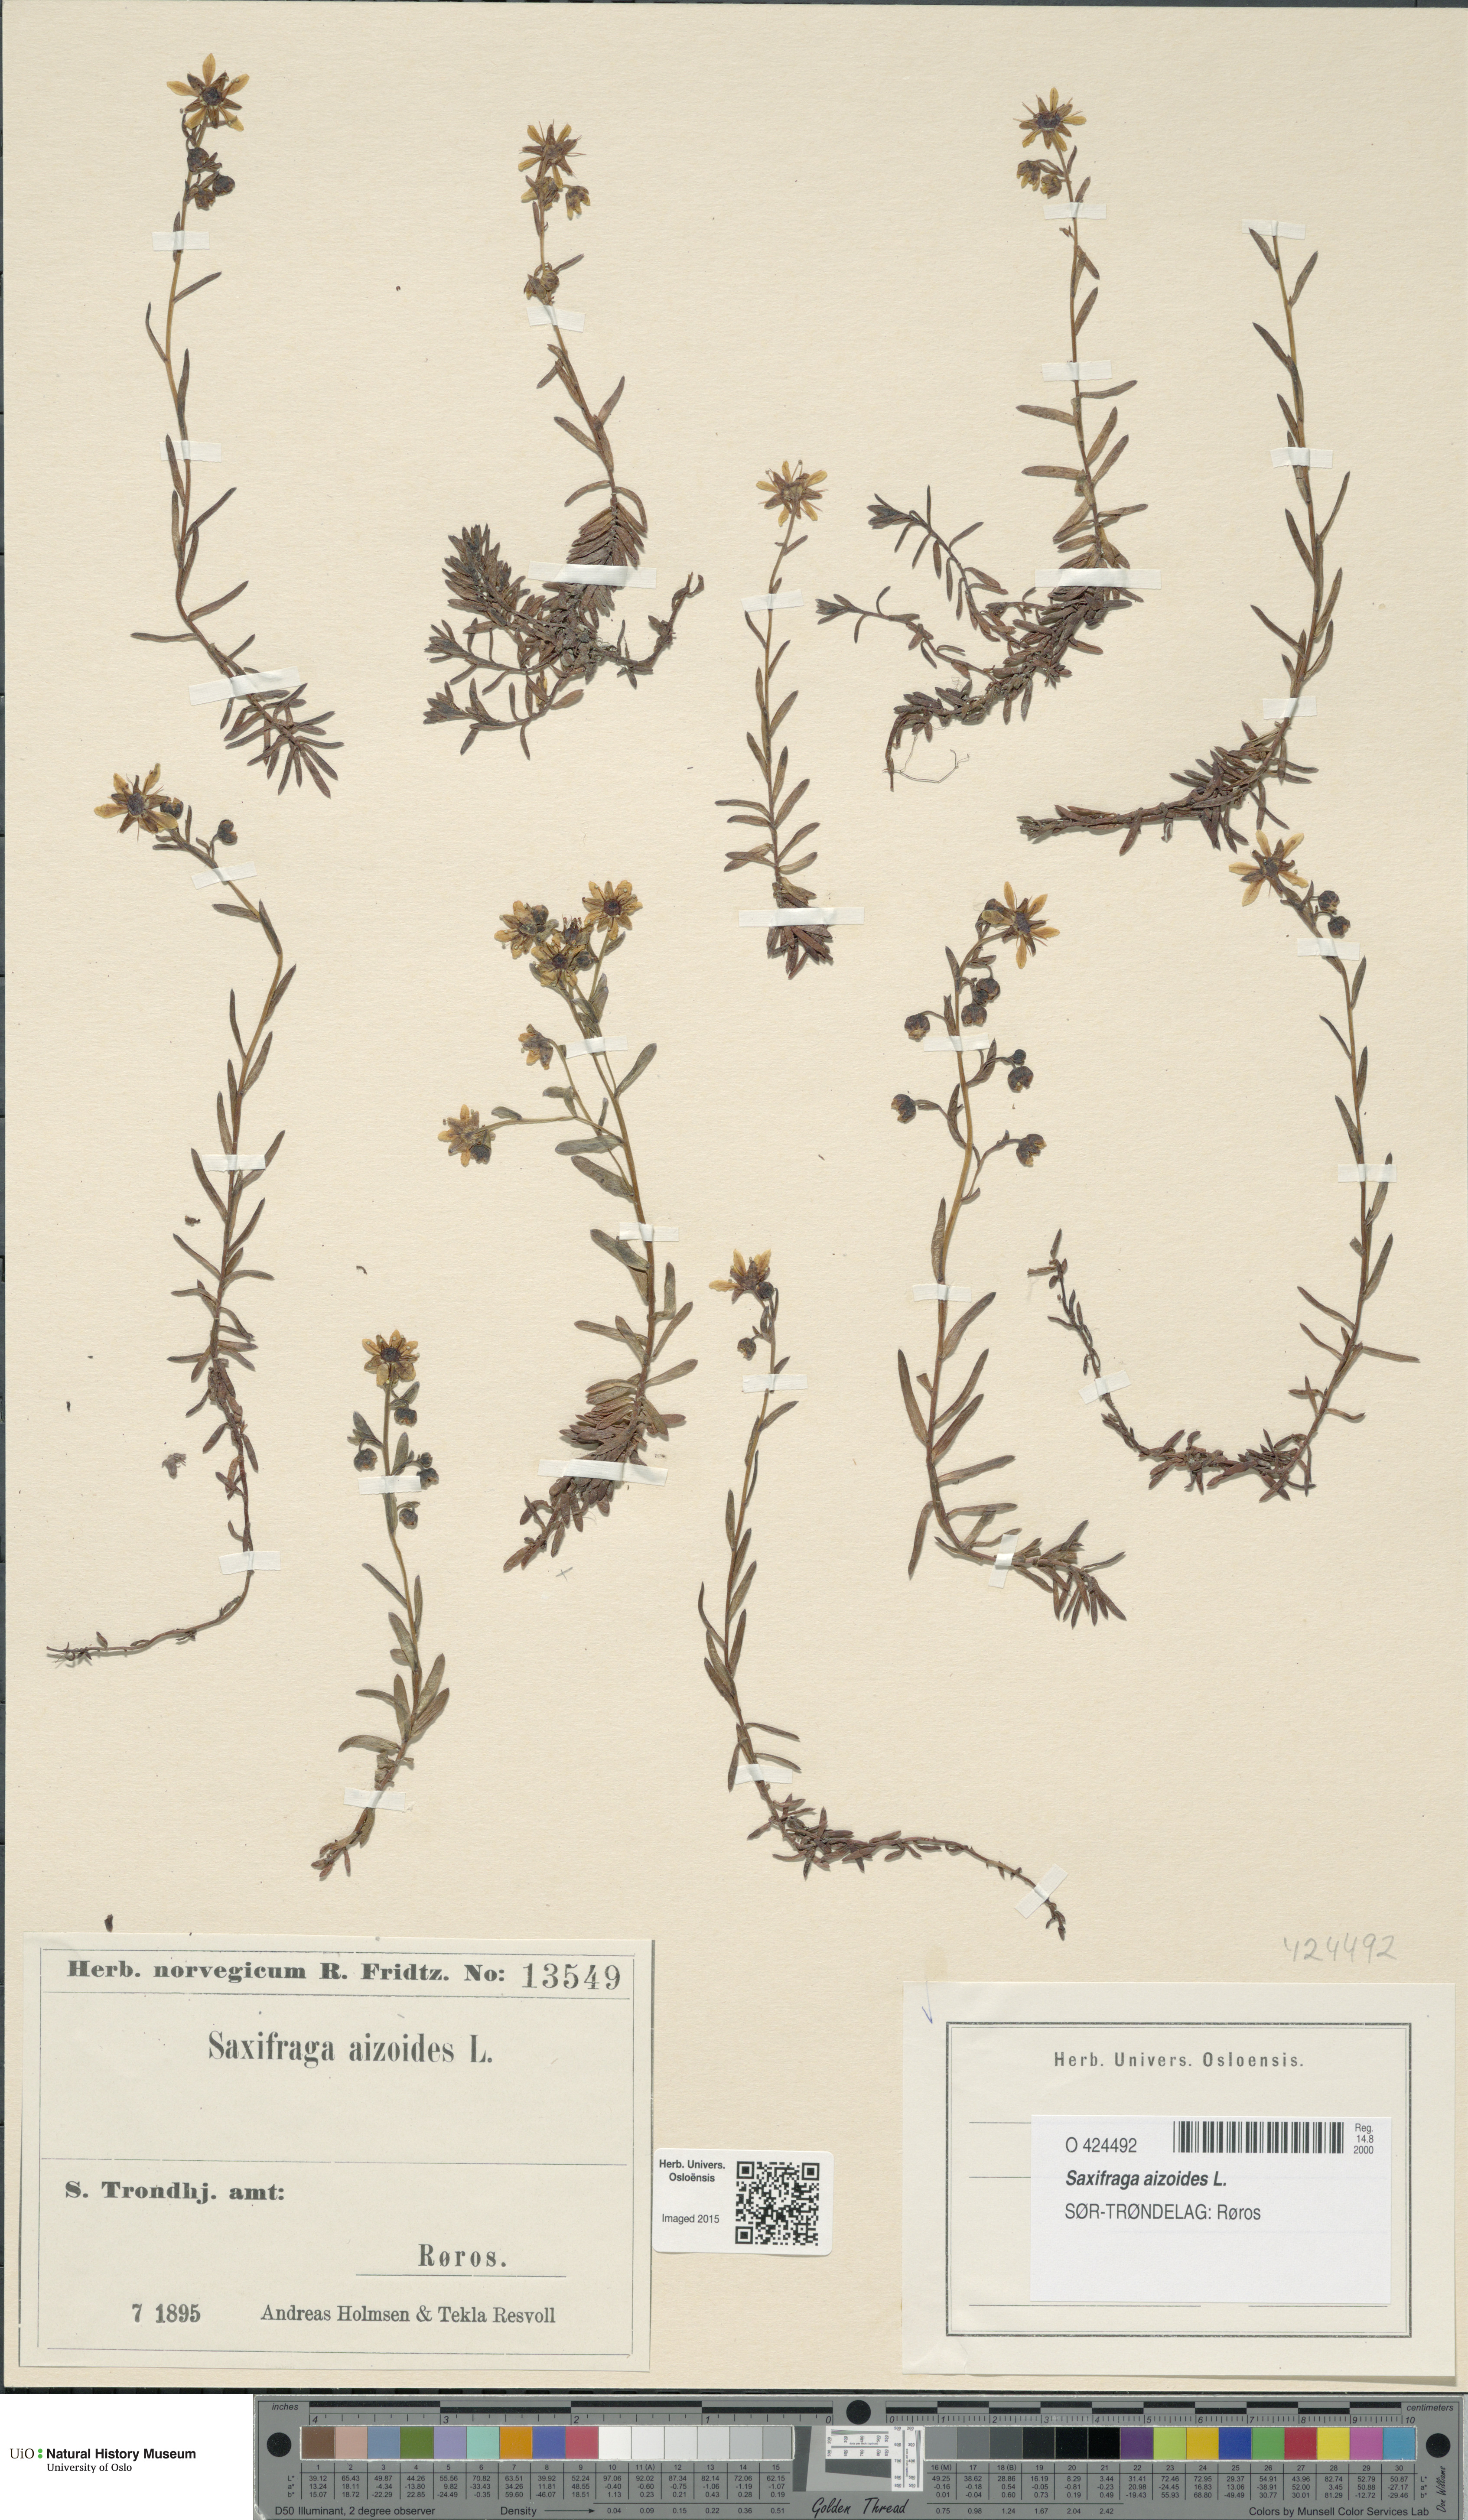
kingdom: Plantae
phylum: Tracheophyta
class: Magnoliopsida
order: Saxifragales
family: Saxifragaceae
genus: Saxifraga
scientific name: Saxifraga aizoides
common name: Yellow mountain saxifrage
